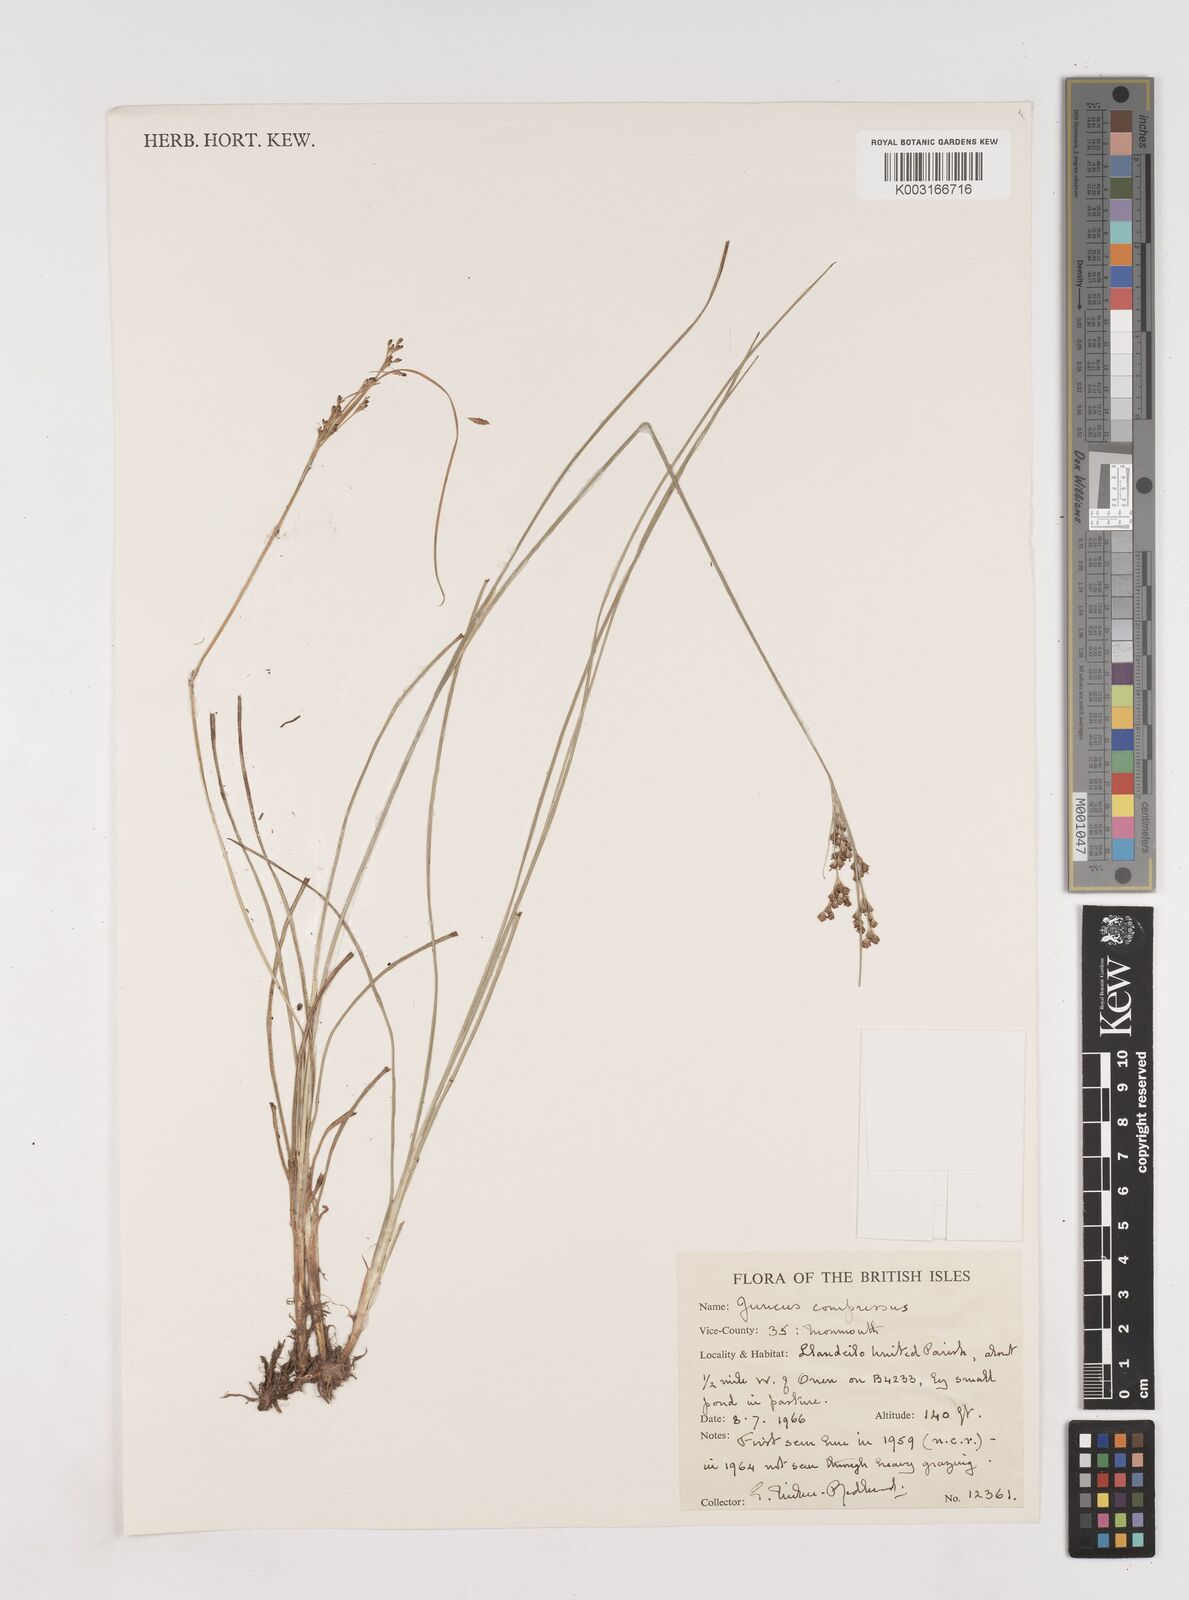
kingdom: Plantae
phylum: Tracheophyta
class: Liliopsida
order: Poales
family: Juncaceae
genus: Juncus
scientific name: Juncus compressus
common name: Round-fruited rush
